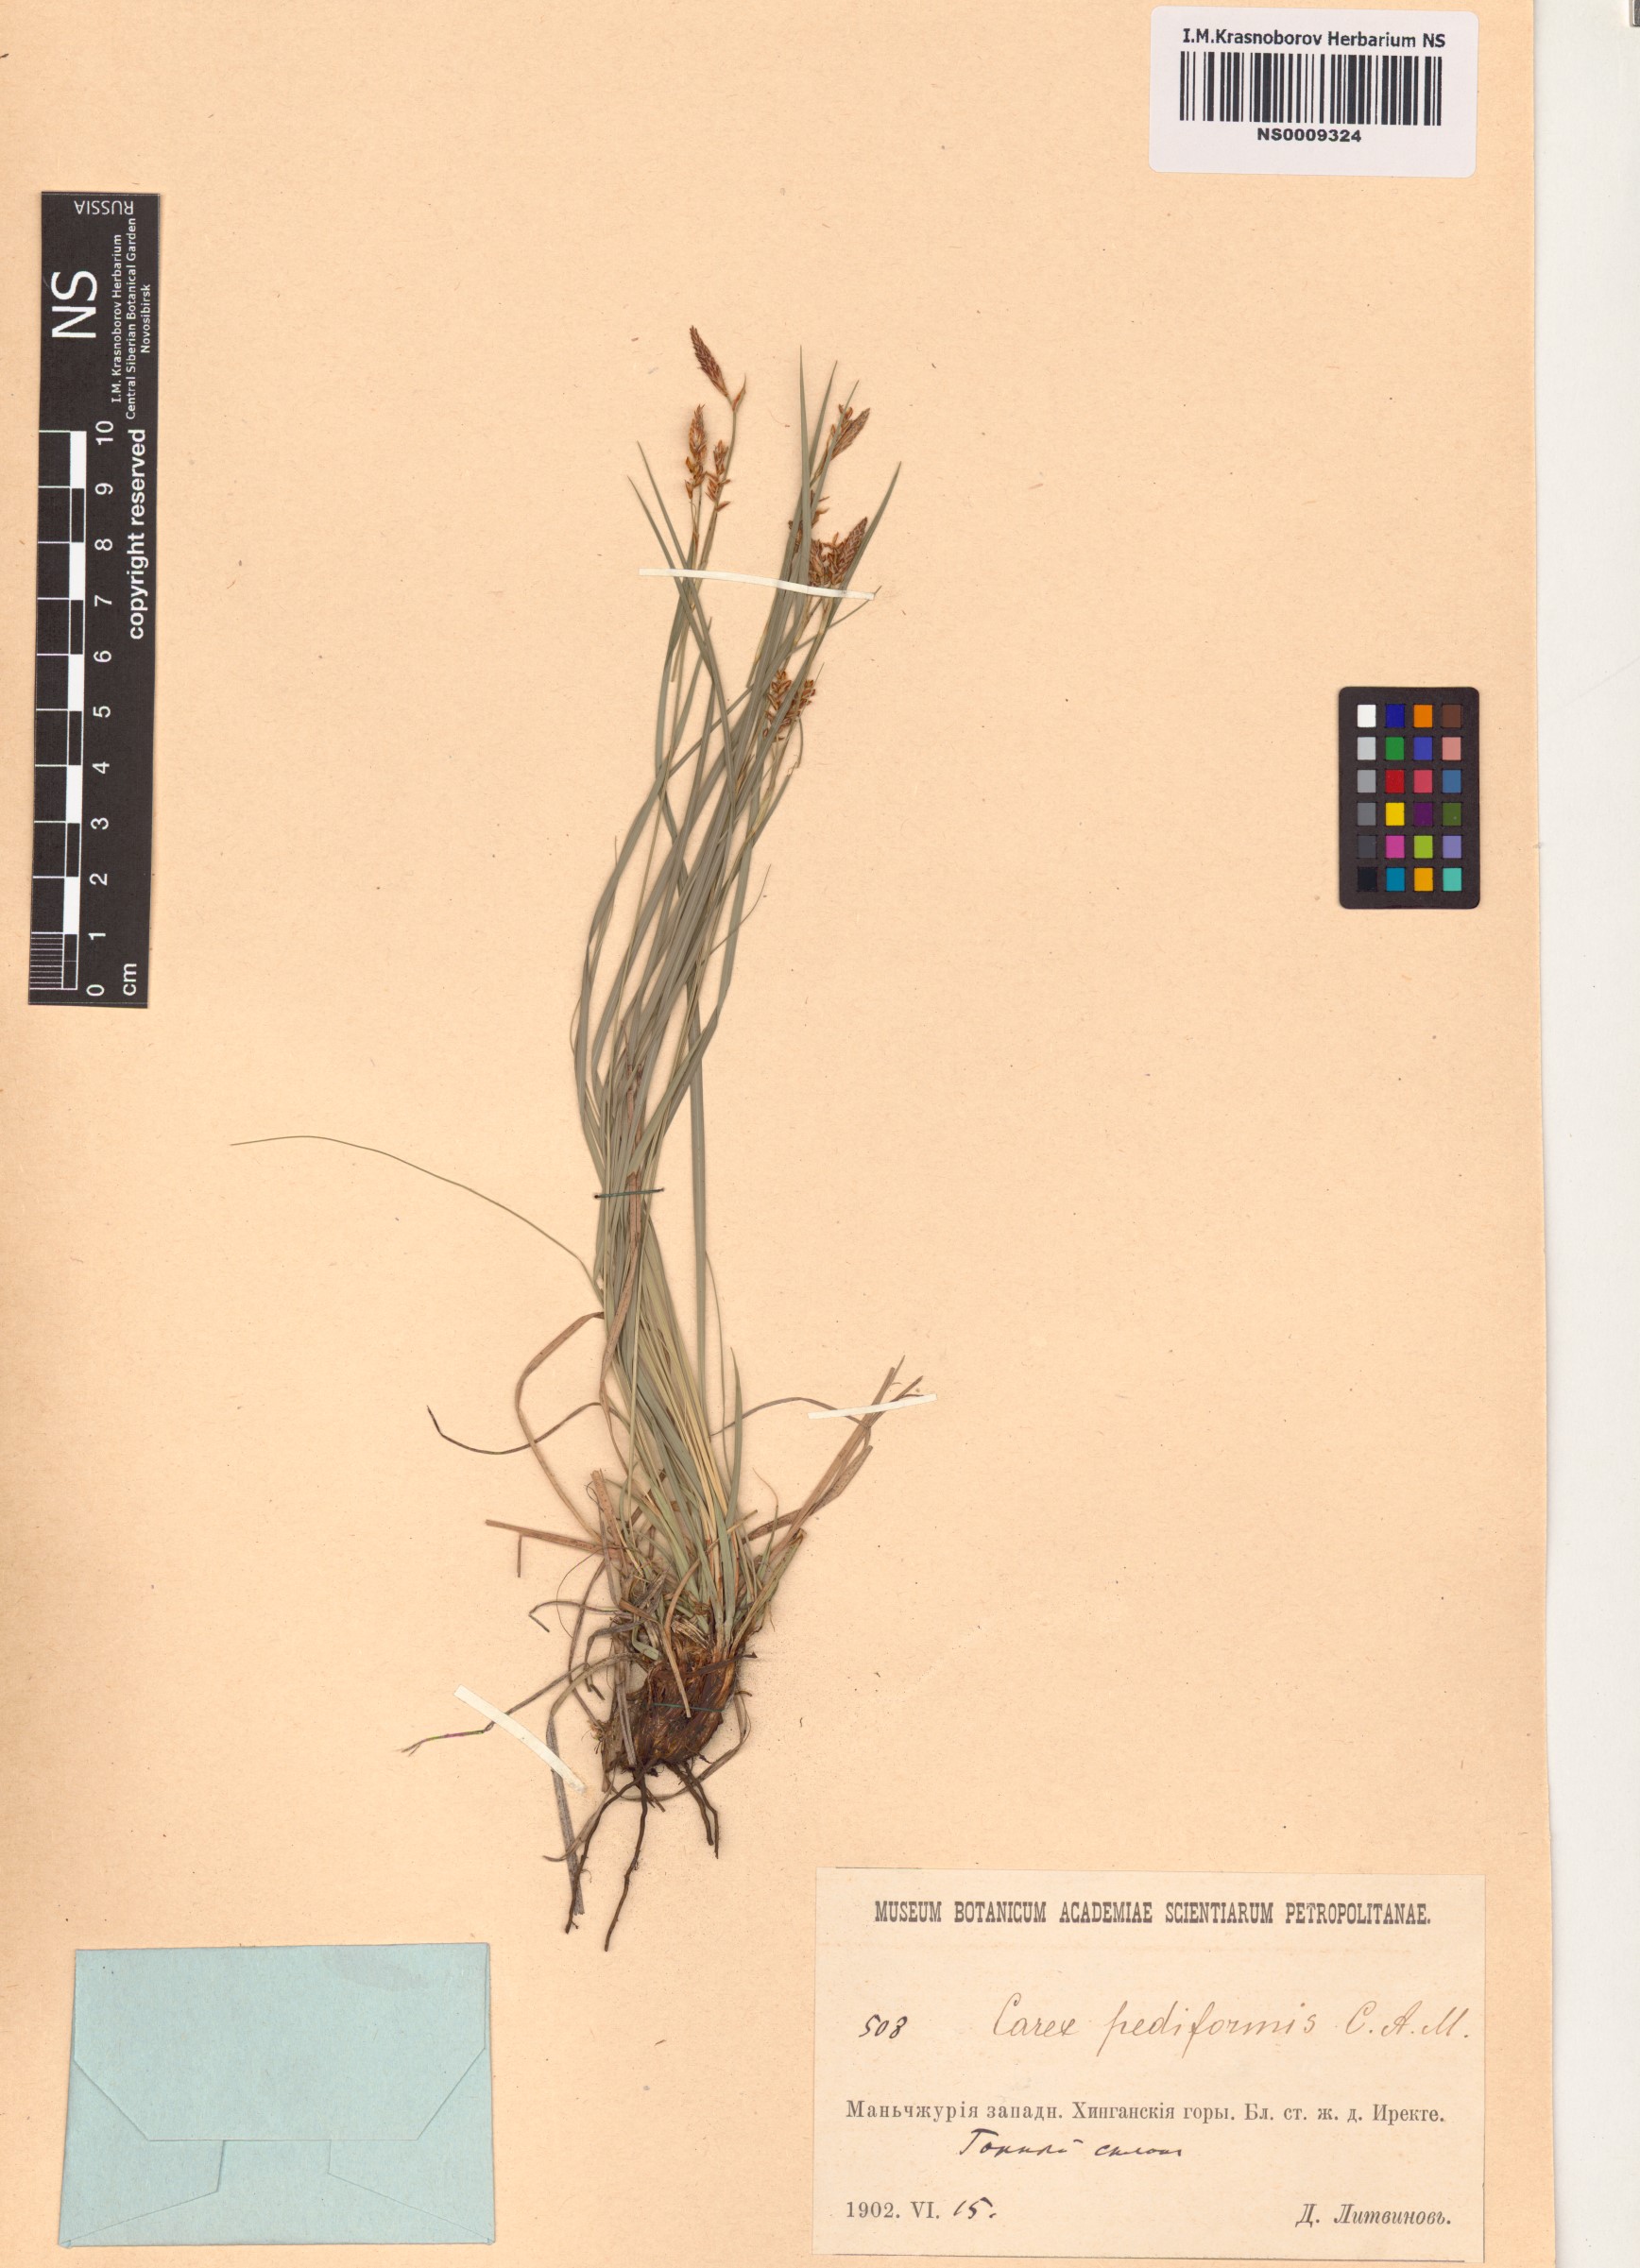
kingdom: Plantae
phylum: Tracheophyta
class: Liliopsida
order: Poales
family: Cyperaceae
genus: Carex
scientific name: Carex pediformis
